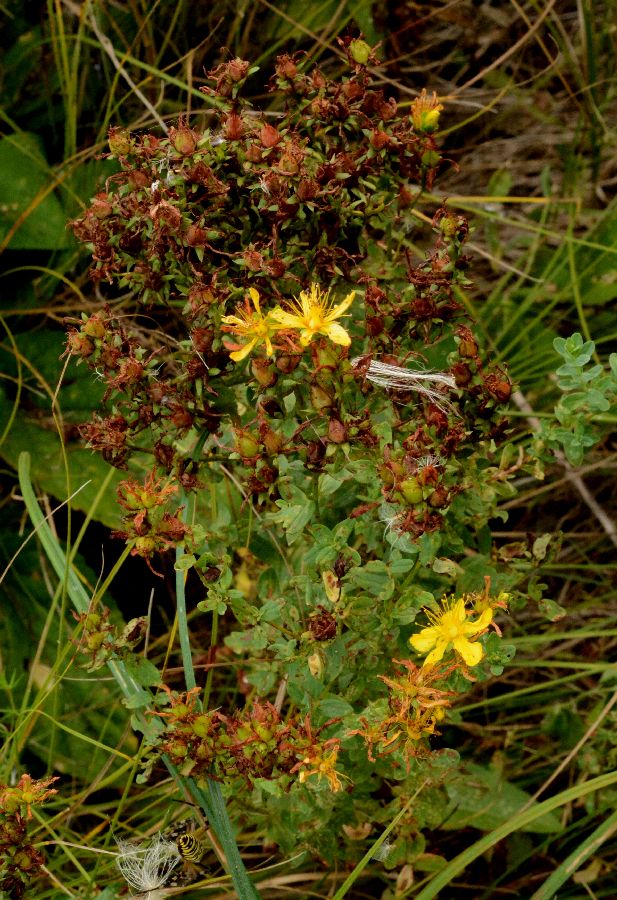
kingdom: Plantae
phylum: Tracheophyta
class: Magnoliopsida
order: Malpighiales
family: Hypericaceae
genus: Hypericum
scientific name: Hypericum perforatum
